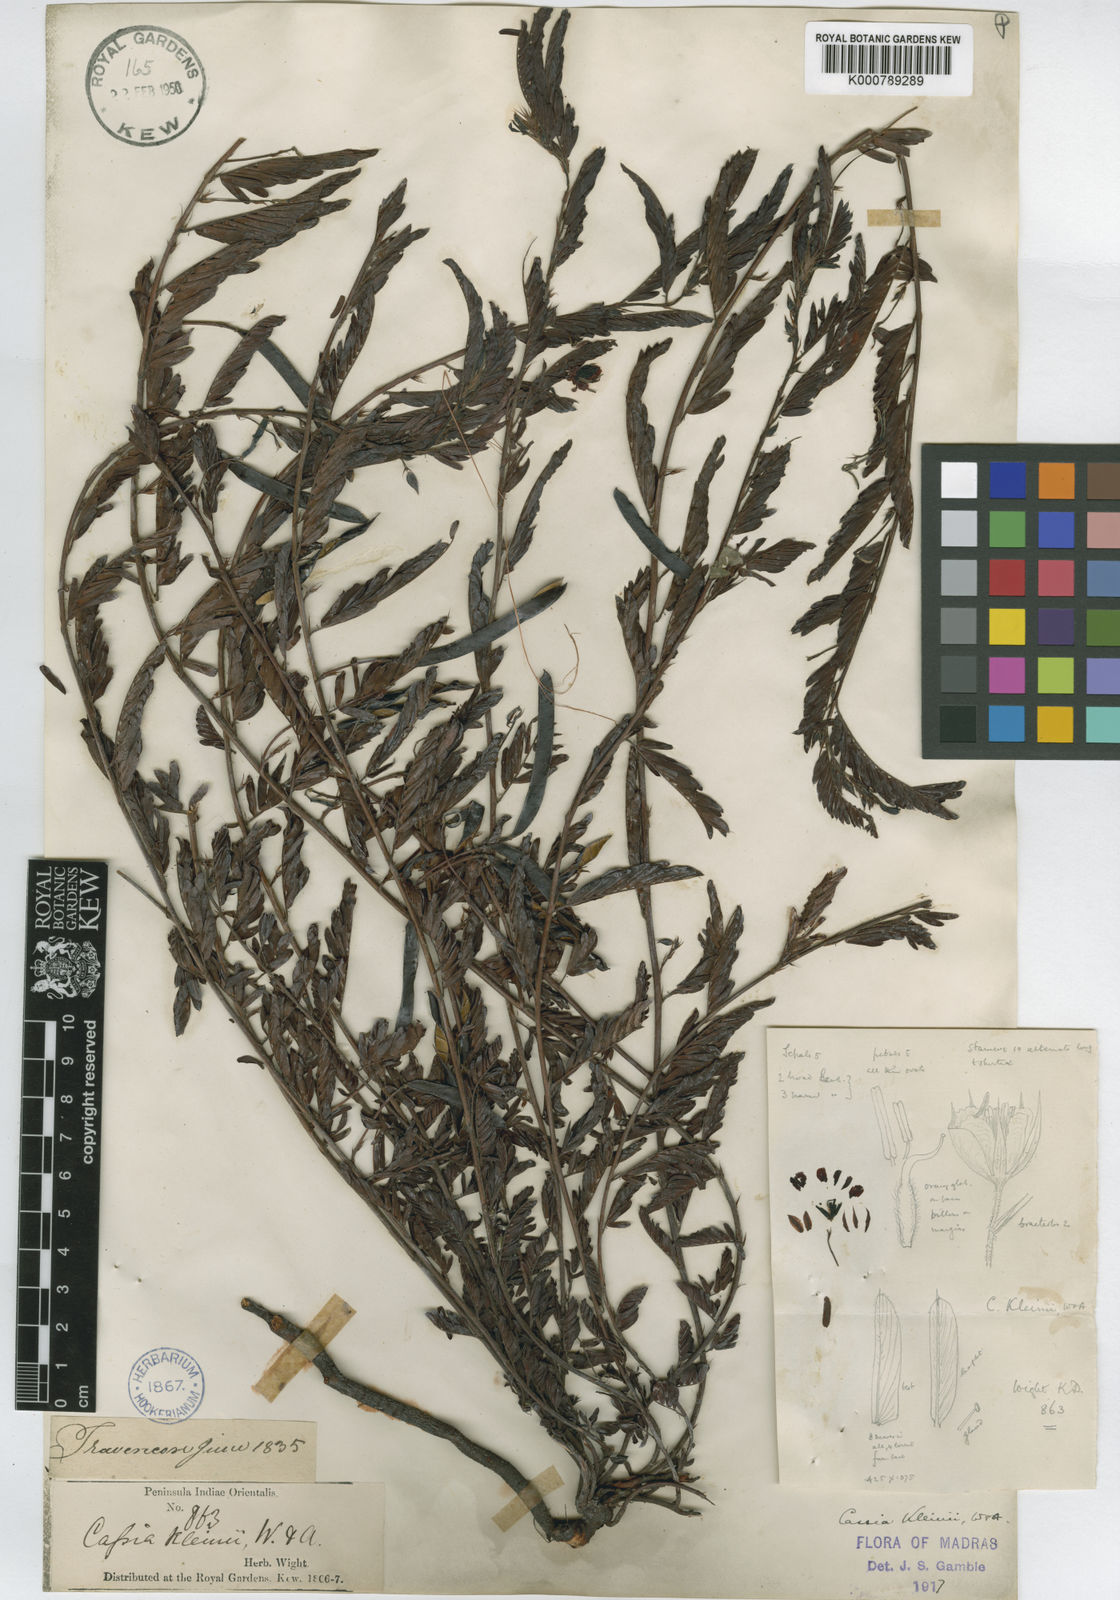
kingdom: Plantae
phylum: Tracheophyta
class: Magnoliopsida
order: Fabales
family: Fabaceae
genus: Chamaecrista
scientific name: Chamaecrista kleinii
